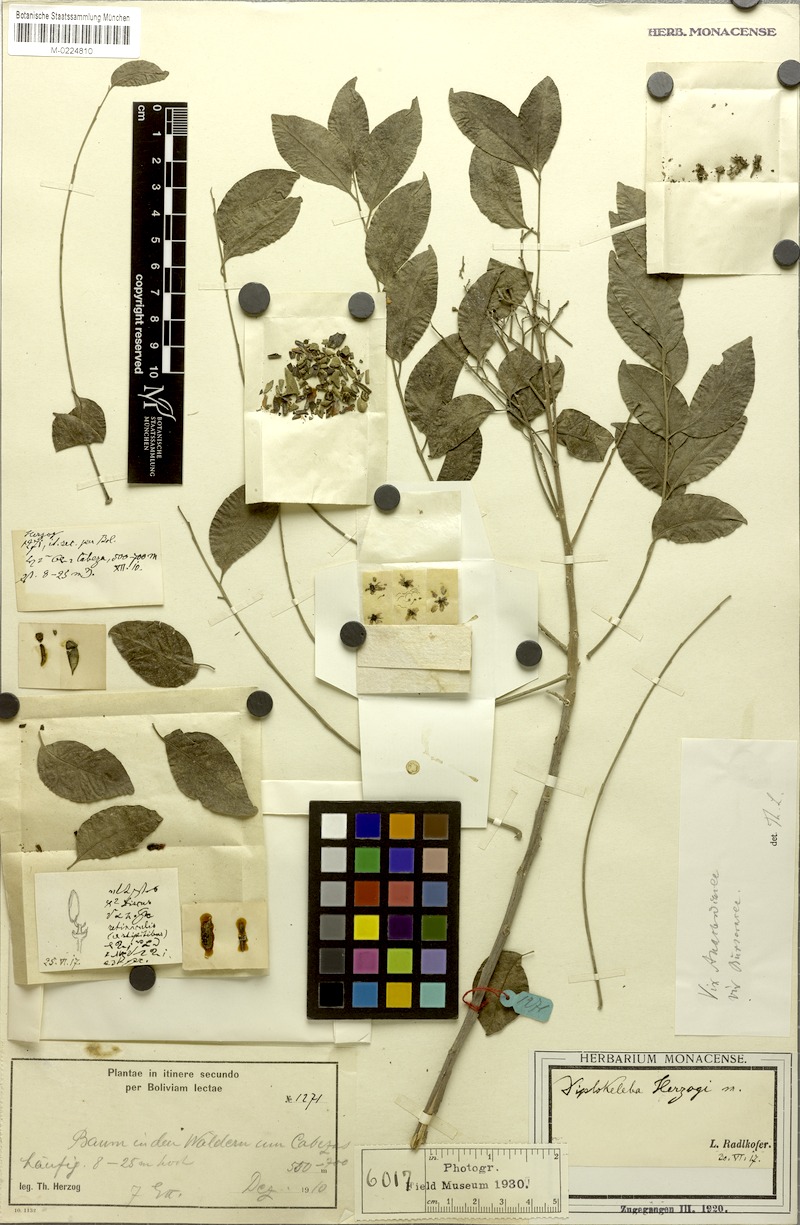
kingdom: Plantae
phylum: Tracheophyta
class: Magnoliopsida
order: Sapindales
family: Sapindaceae
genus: Diplokeleba
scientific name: Diplokeleba herzogii
